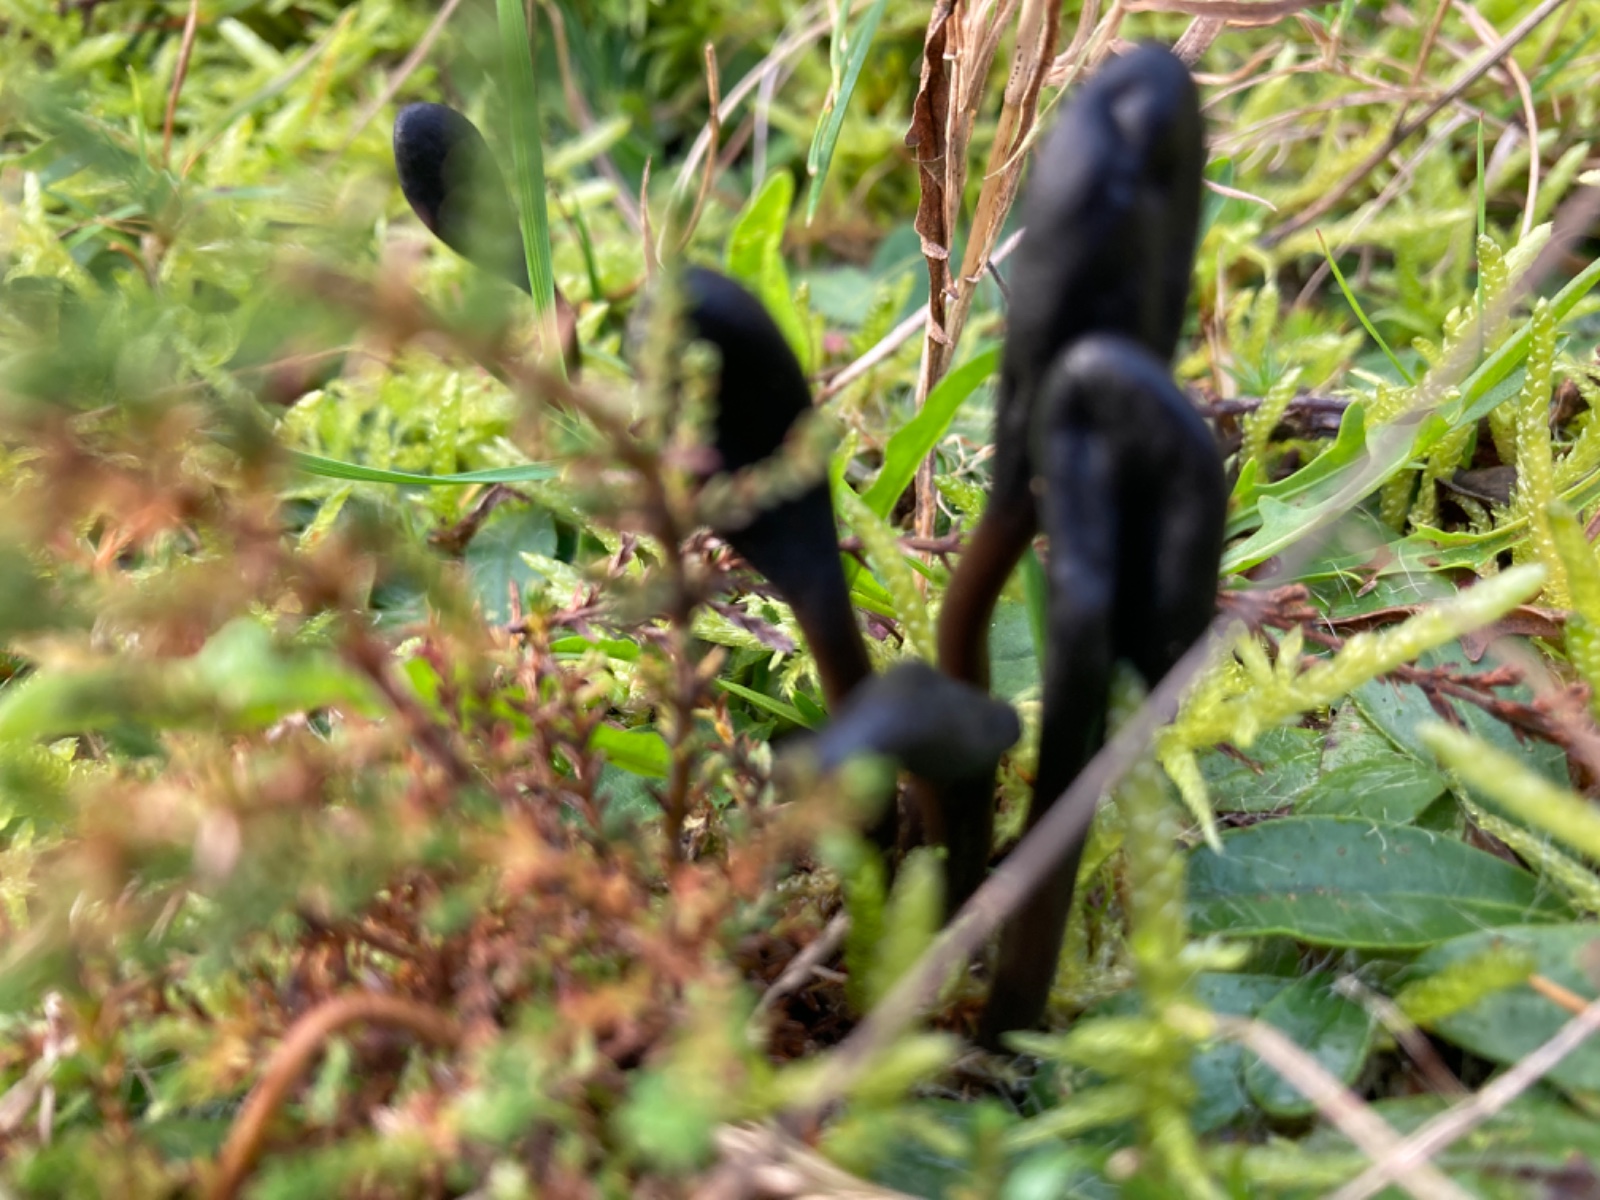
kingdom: Fungi
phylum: Ascomycota
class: Geoglossomycetes
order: Geoglossales
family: Geoglossaceae
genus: Geoglossum
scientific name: Geoglossum
